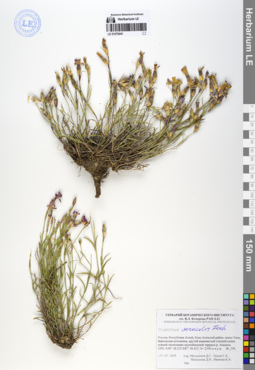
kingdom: Plantae
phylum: Tracheophyta
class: Magnoliopsida
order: Caryophyllales
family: Caryophyllaceae
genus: Dianthus
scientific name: Dianthus chinensis
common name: Rainbow pink
